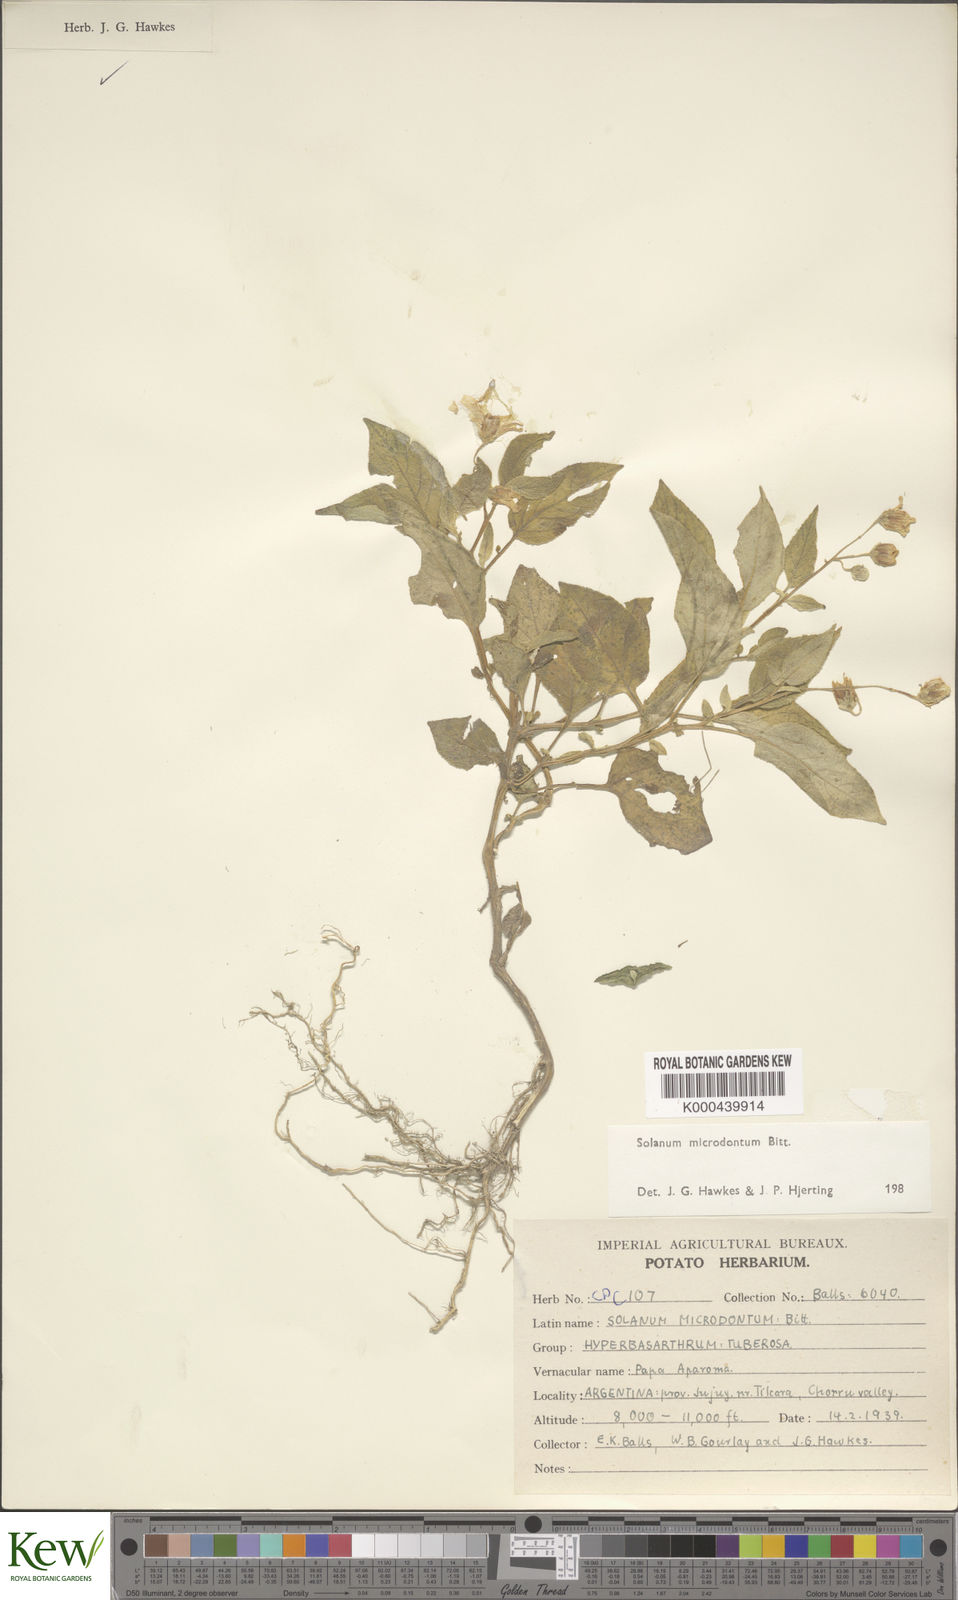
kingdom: Plantae
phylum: Tracheophyta
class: Magnoliopsida
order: Solanales
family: Solanaceae
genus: Solanum
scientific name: Solanum microdontum
